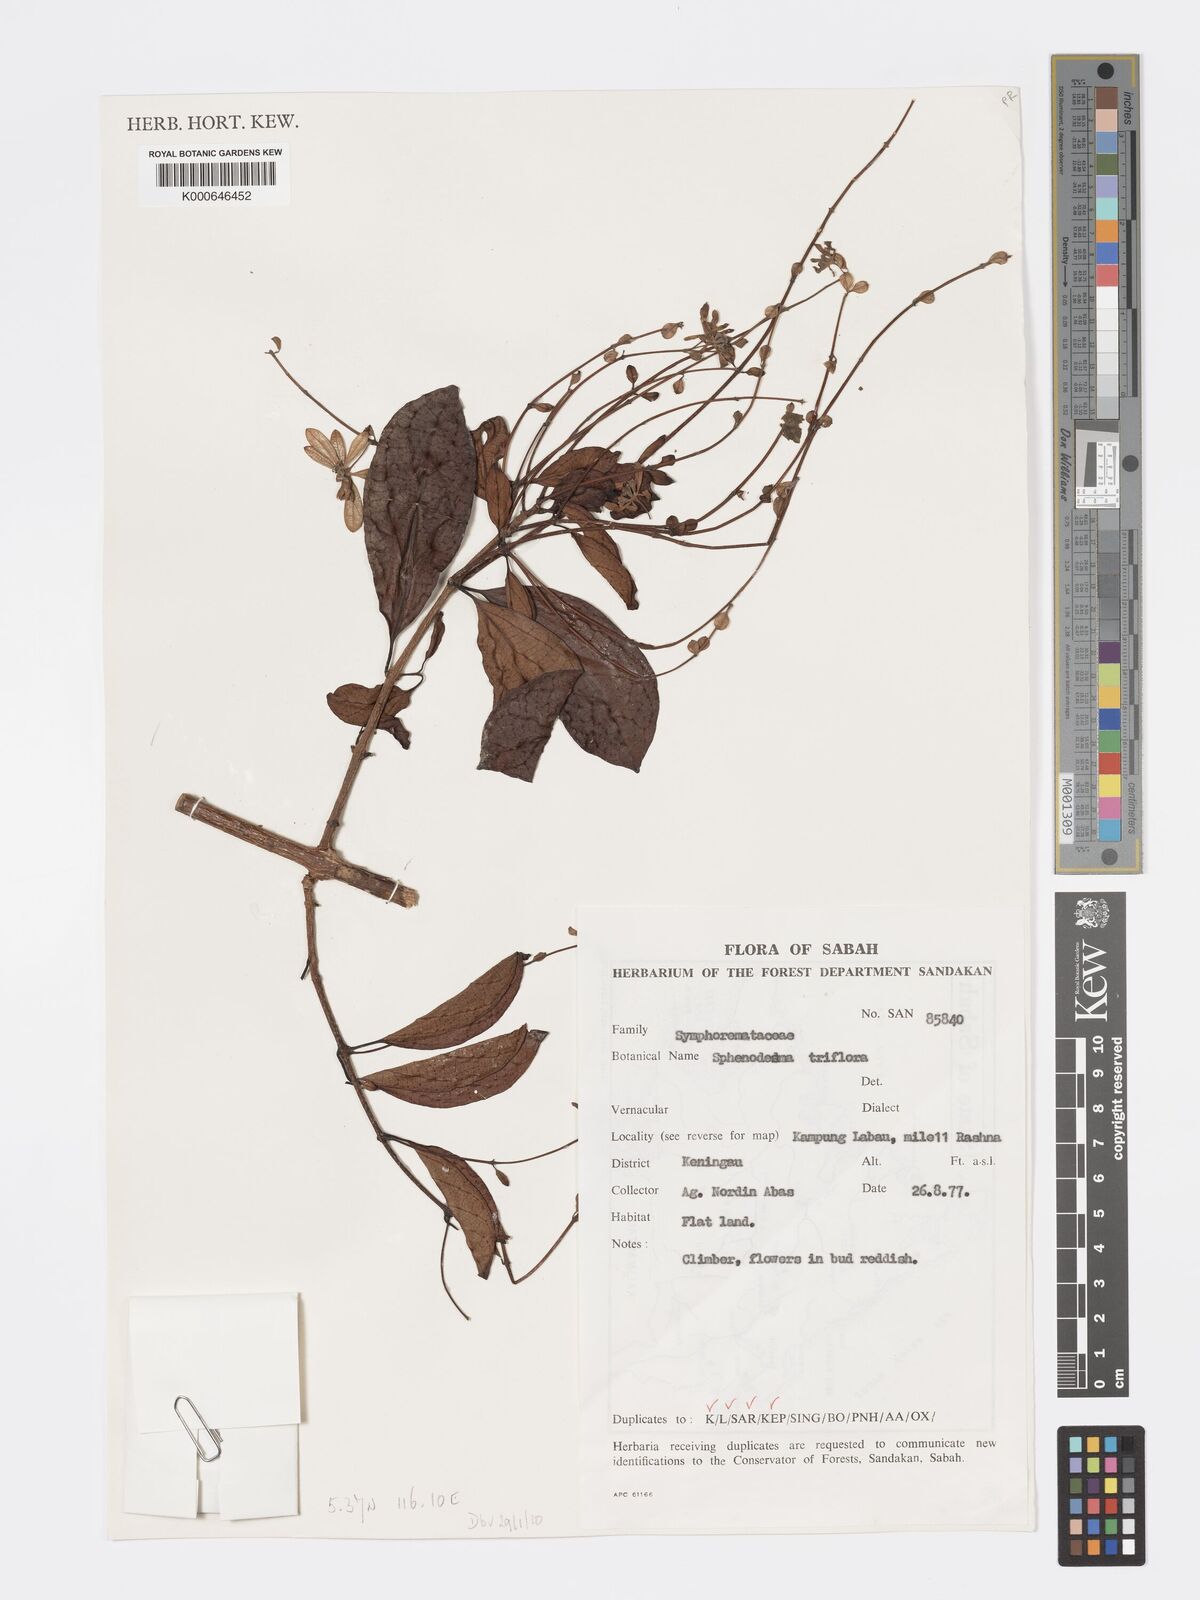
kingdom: Plantae
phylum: Tracheophyta
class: Magnoliopsida
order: Lamiales
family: Lamiaceae
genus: Sphenodesme
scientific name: Sphenodesme
